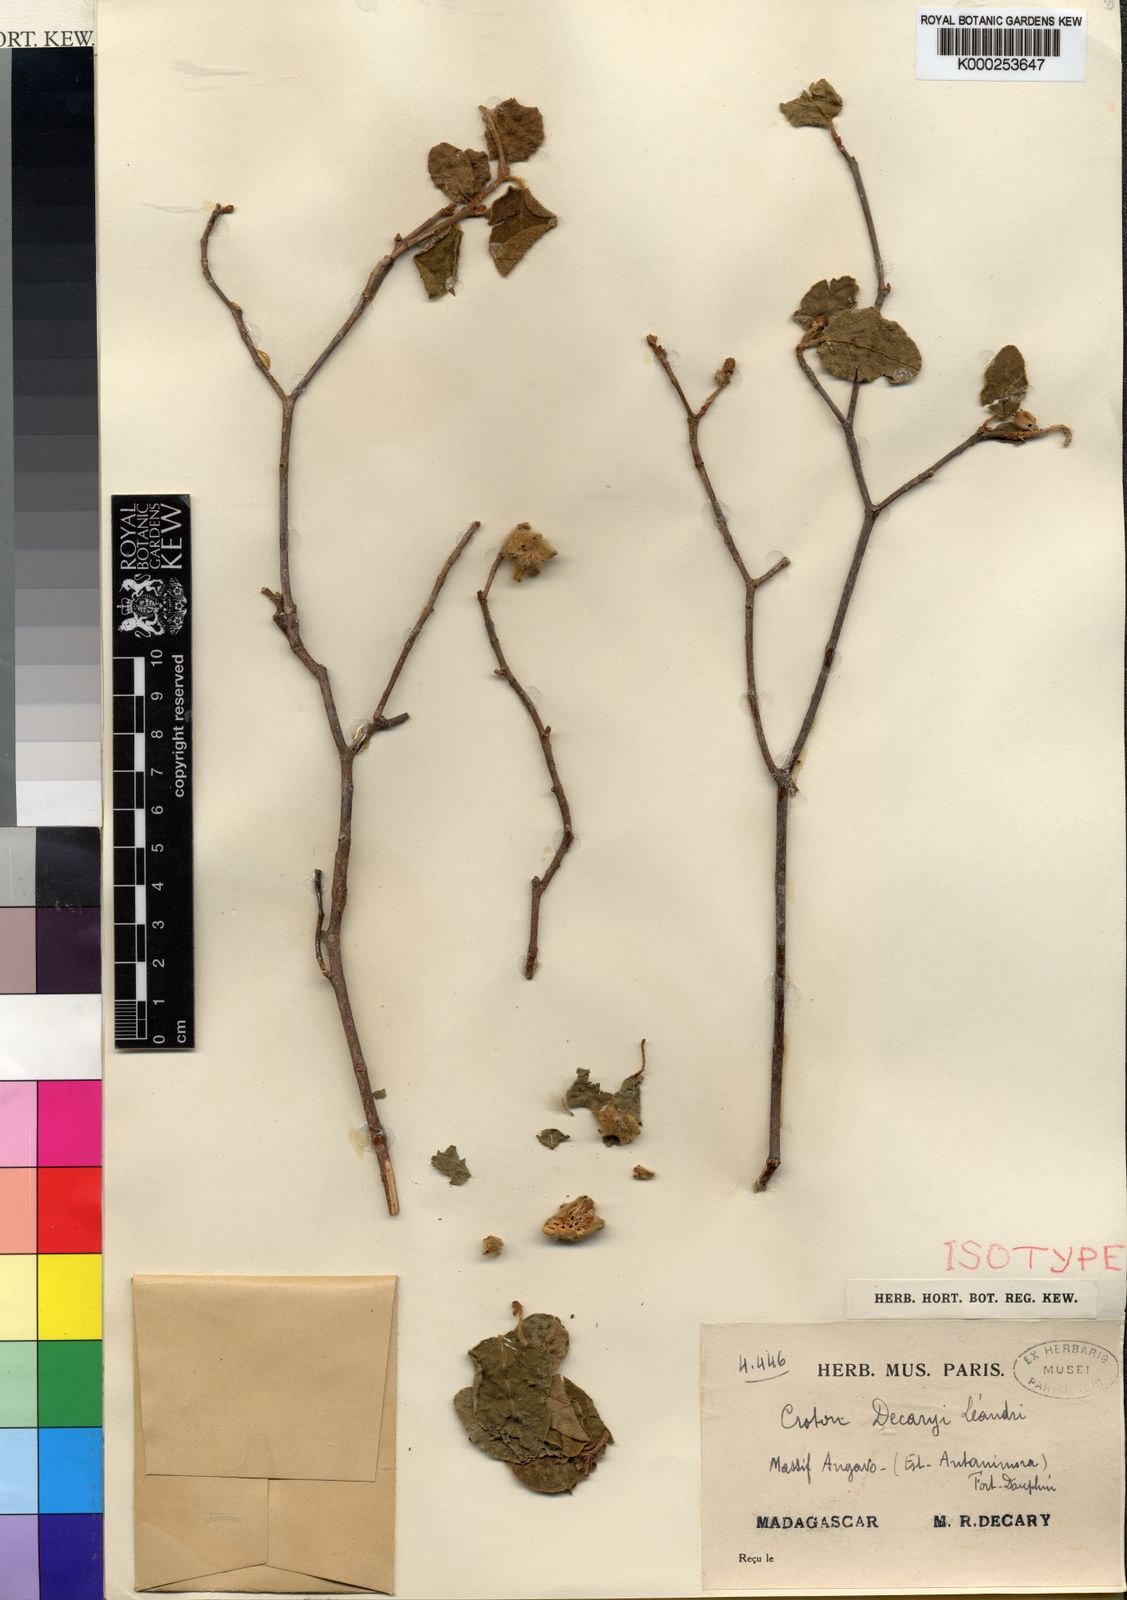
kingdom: Plantae
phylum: Tracheophyta
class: Magnoliopsida
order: Malpighiales
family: Euphorbiaceae
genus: Croton
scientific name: Croton decaryi
